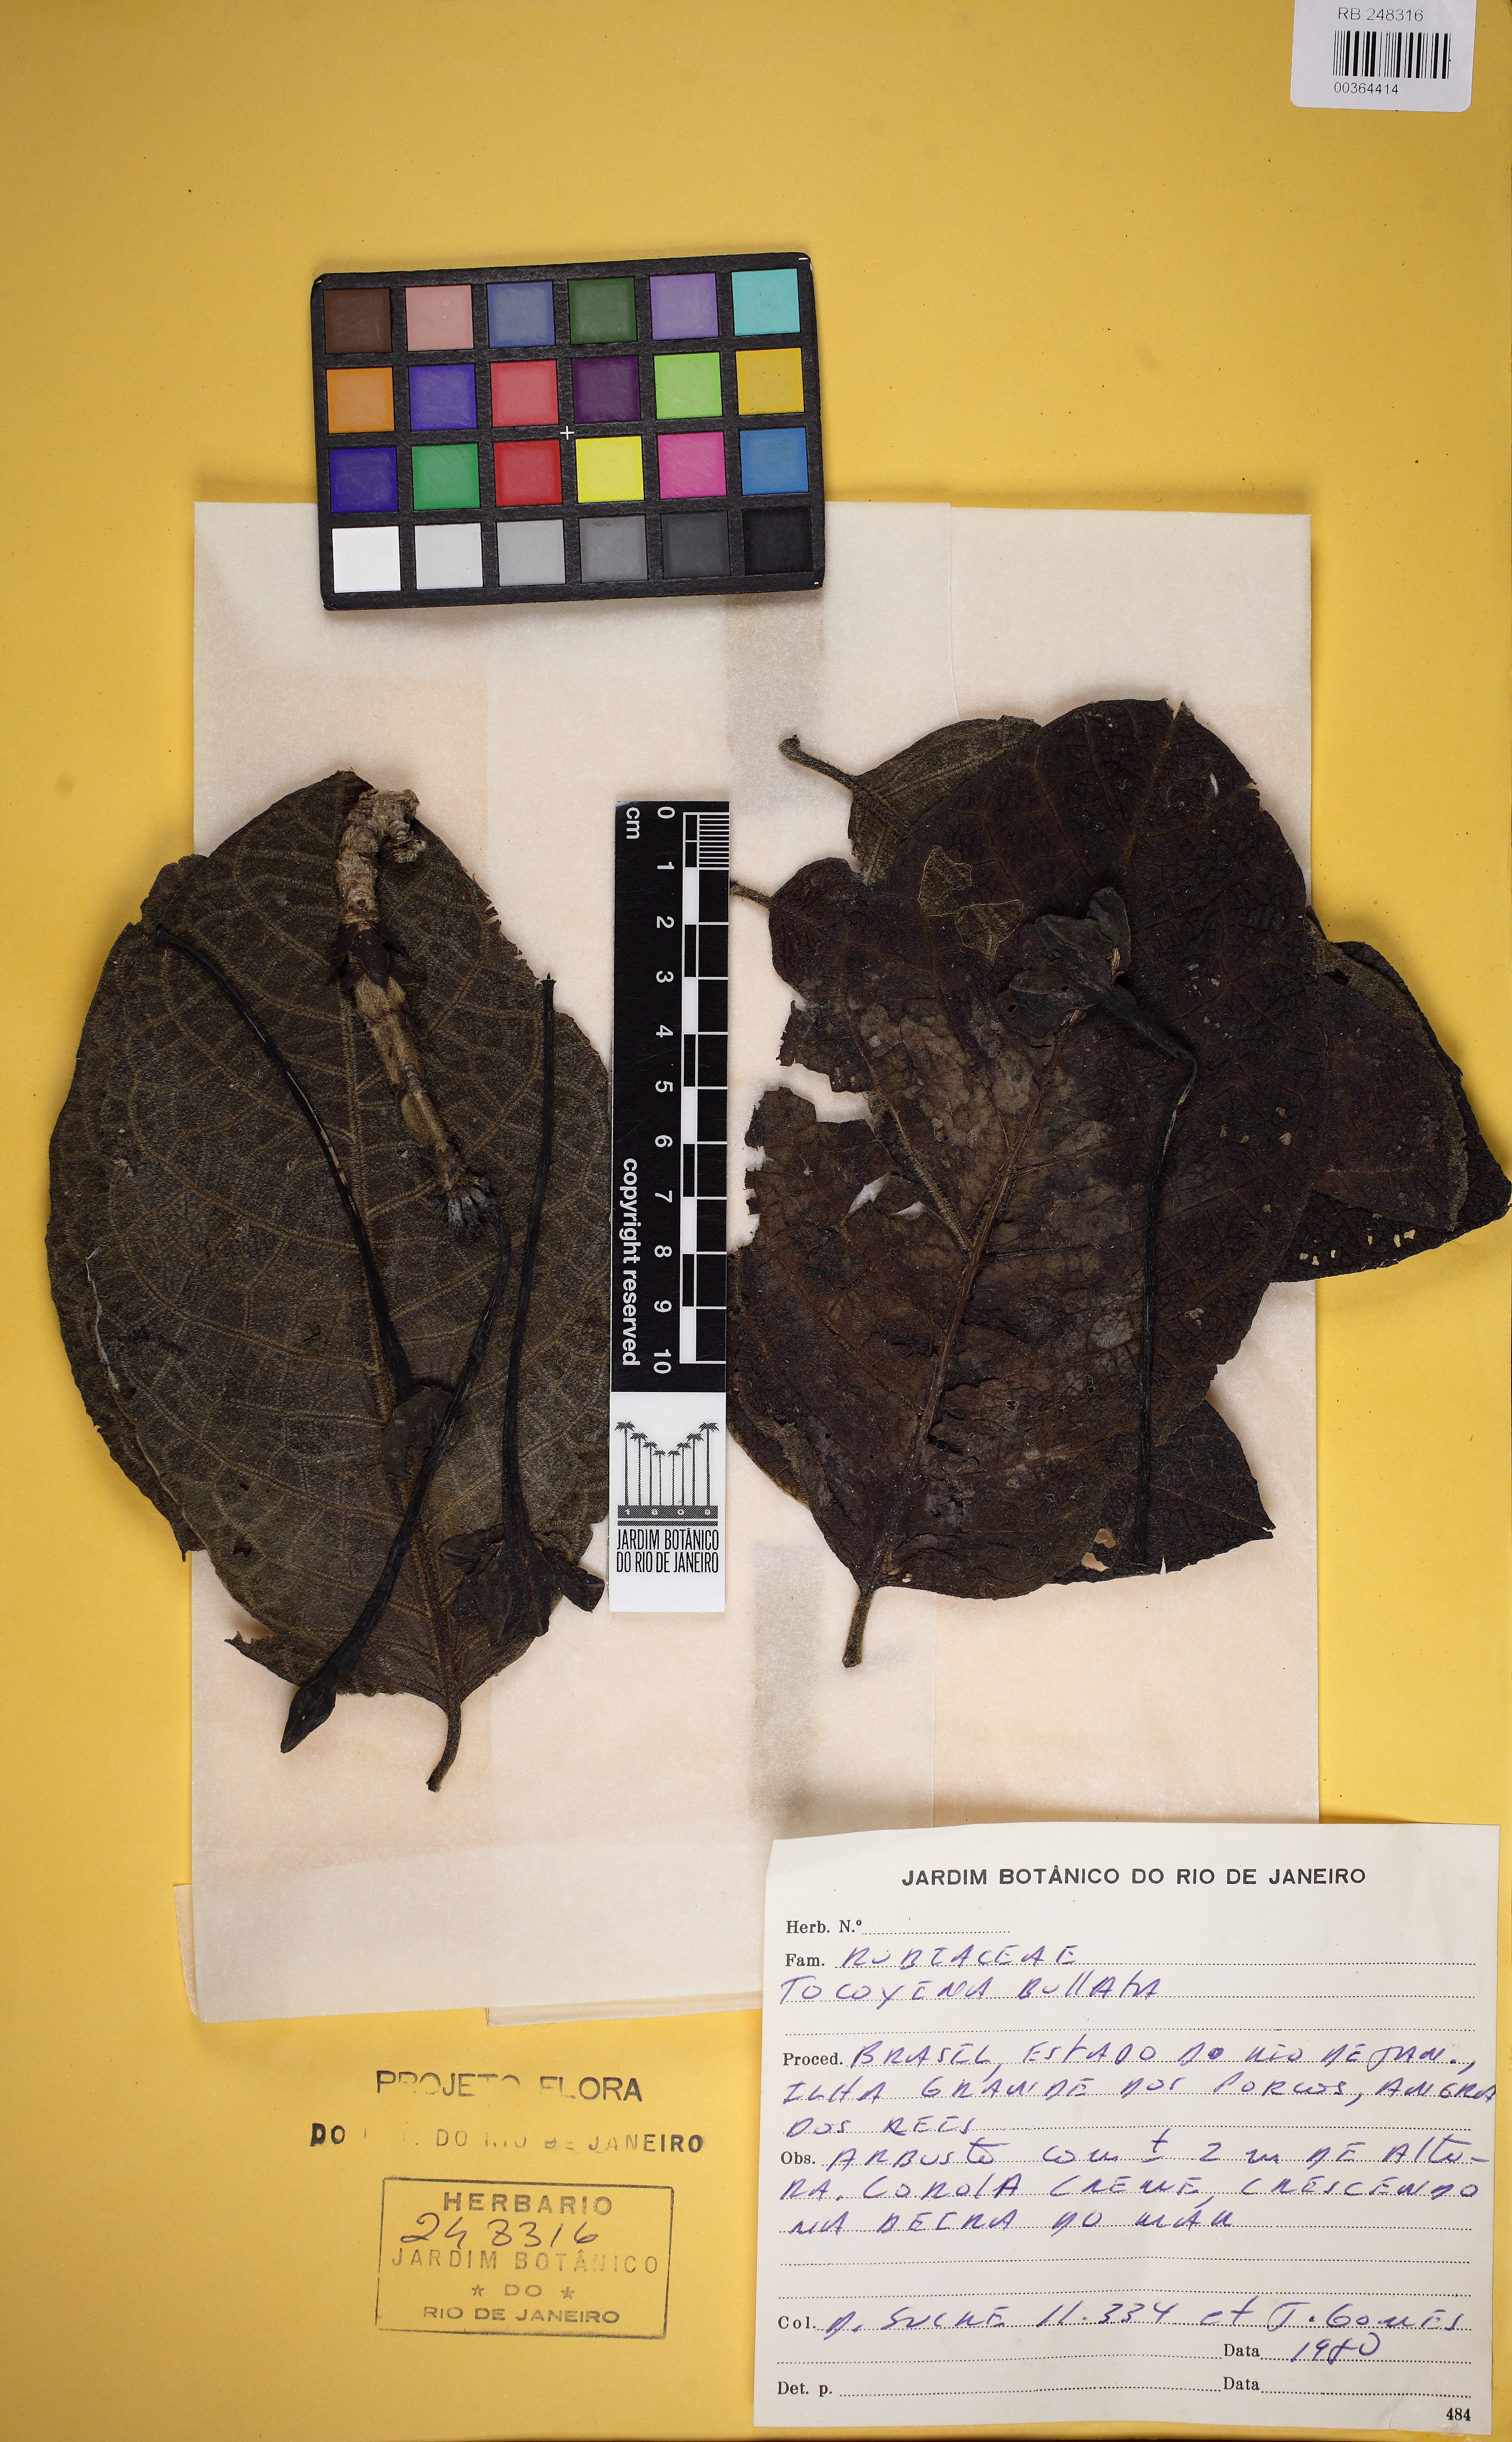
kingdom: Plantae
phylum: Tracheophyta
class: Magnoliopsida
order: Gentianales
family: Rubiaceae
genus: Tocoyena
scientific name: Tocoyena bullata
